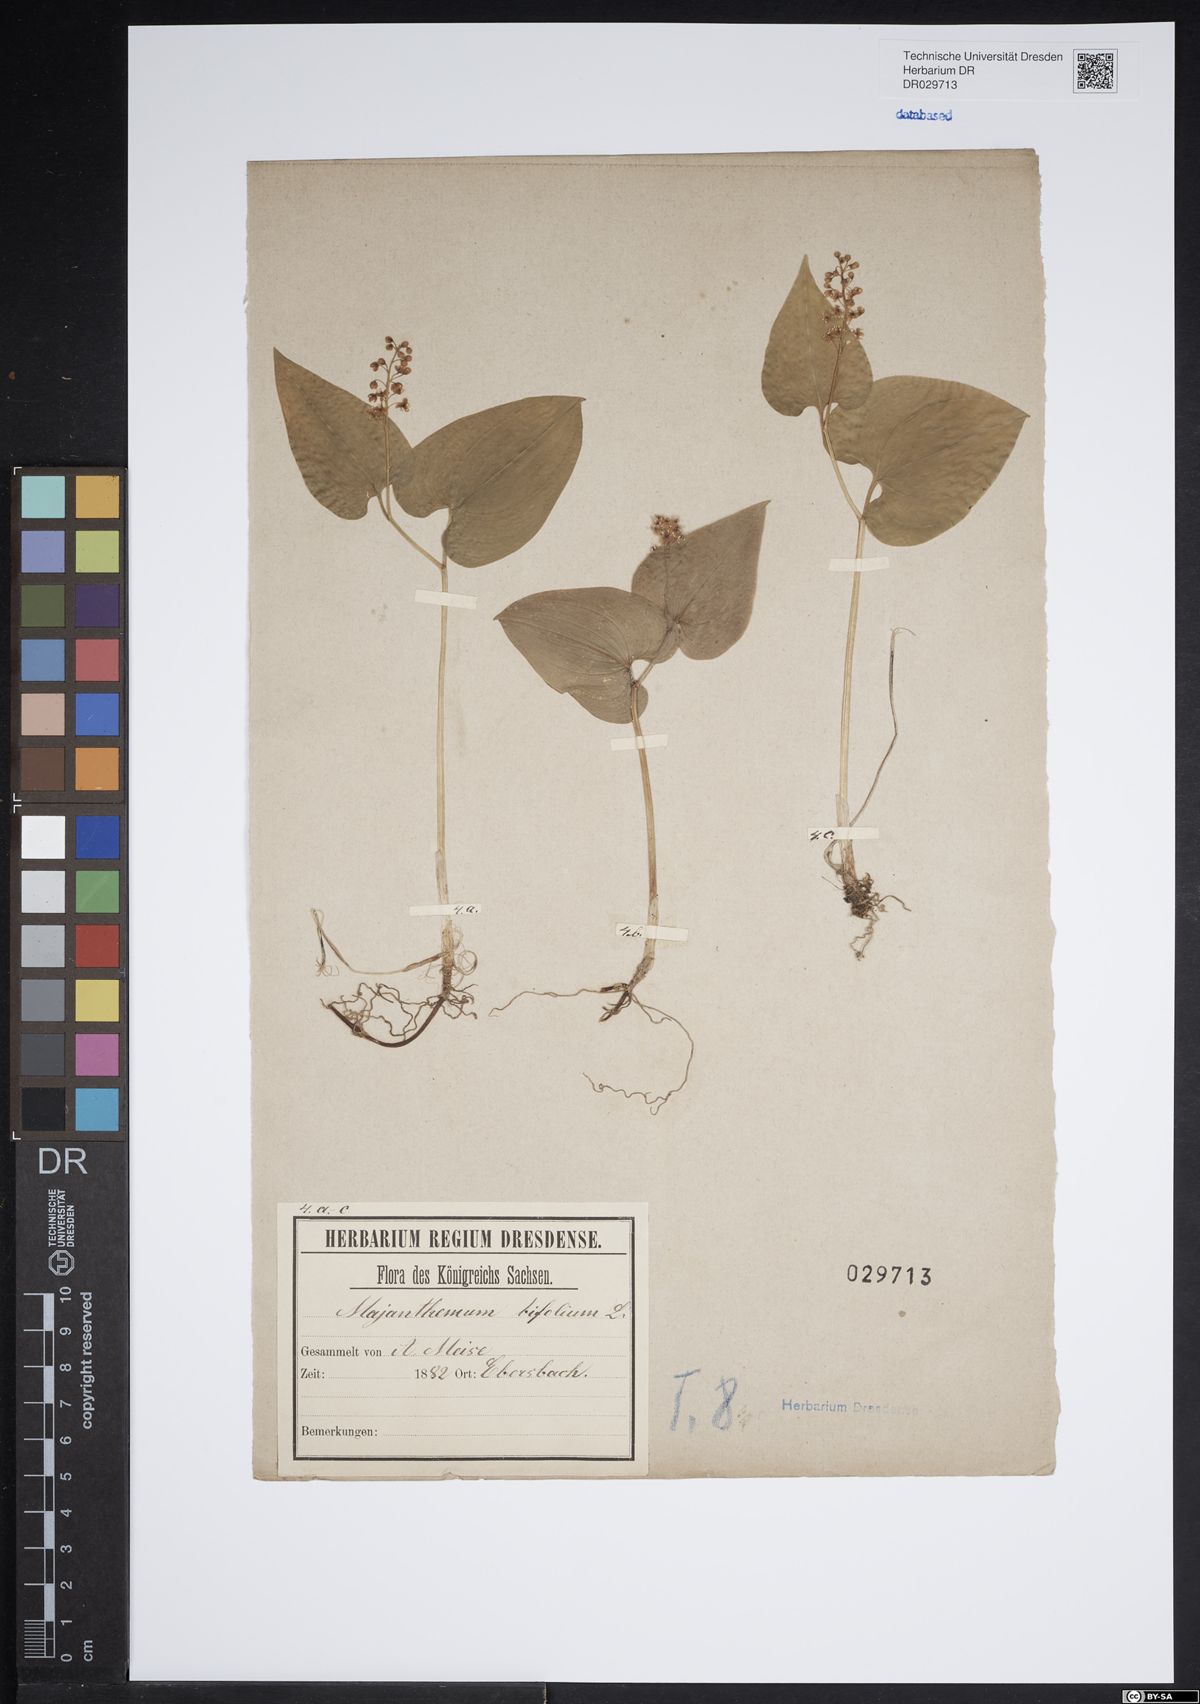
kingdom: Plantae
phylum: Tracheophyta
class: Liliopsida
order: Asparagales
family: Asparagaceae
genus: Maianthemum
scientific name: Maianthemum bifolium
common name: May lily
